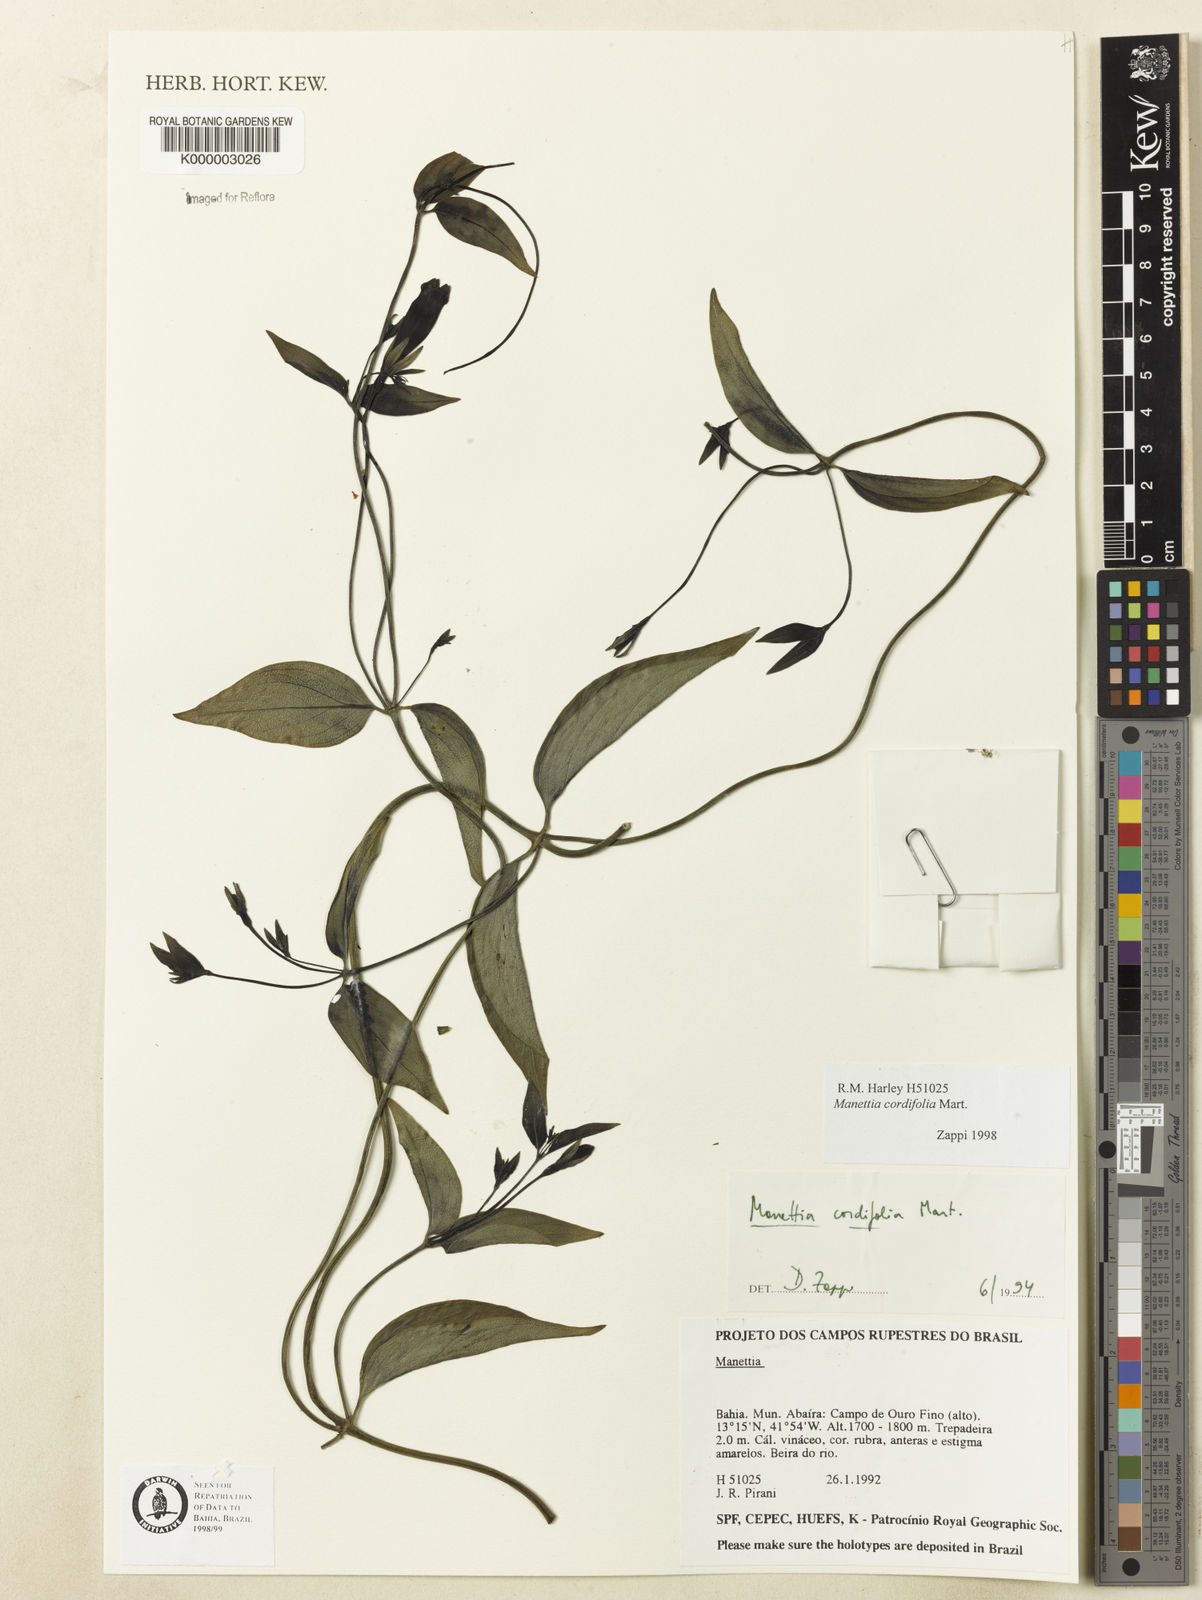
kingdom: Plantae
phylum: Tracheophyta
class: Magnoliopsida
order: Gentianales
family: Rubiaceae
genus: Manettia
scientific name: Manettia cordifolia
